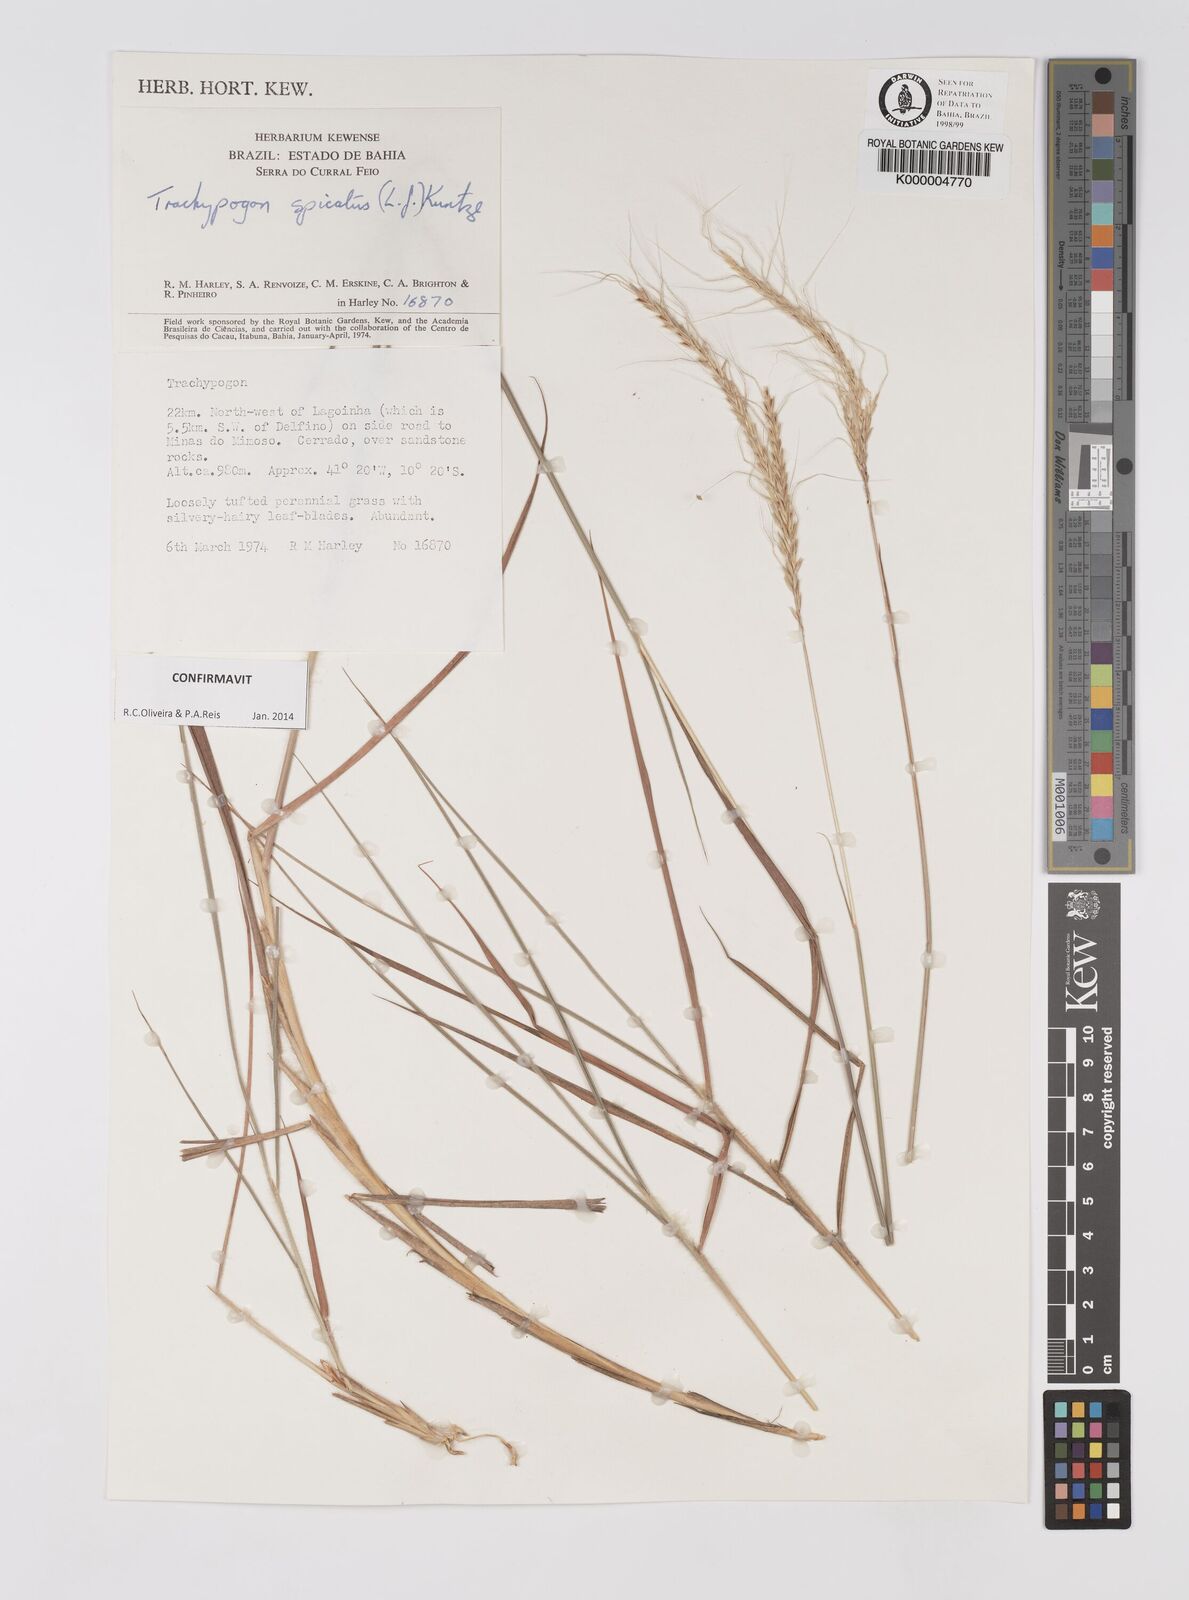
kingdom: Plantae
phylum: Tracheophyta
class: Liliopsida
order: Poales
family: Poaceae
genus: Trachypogon
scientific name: Trachypogon spicatus
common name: Crinkle-awn
